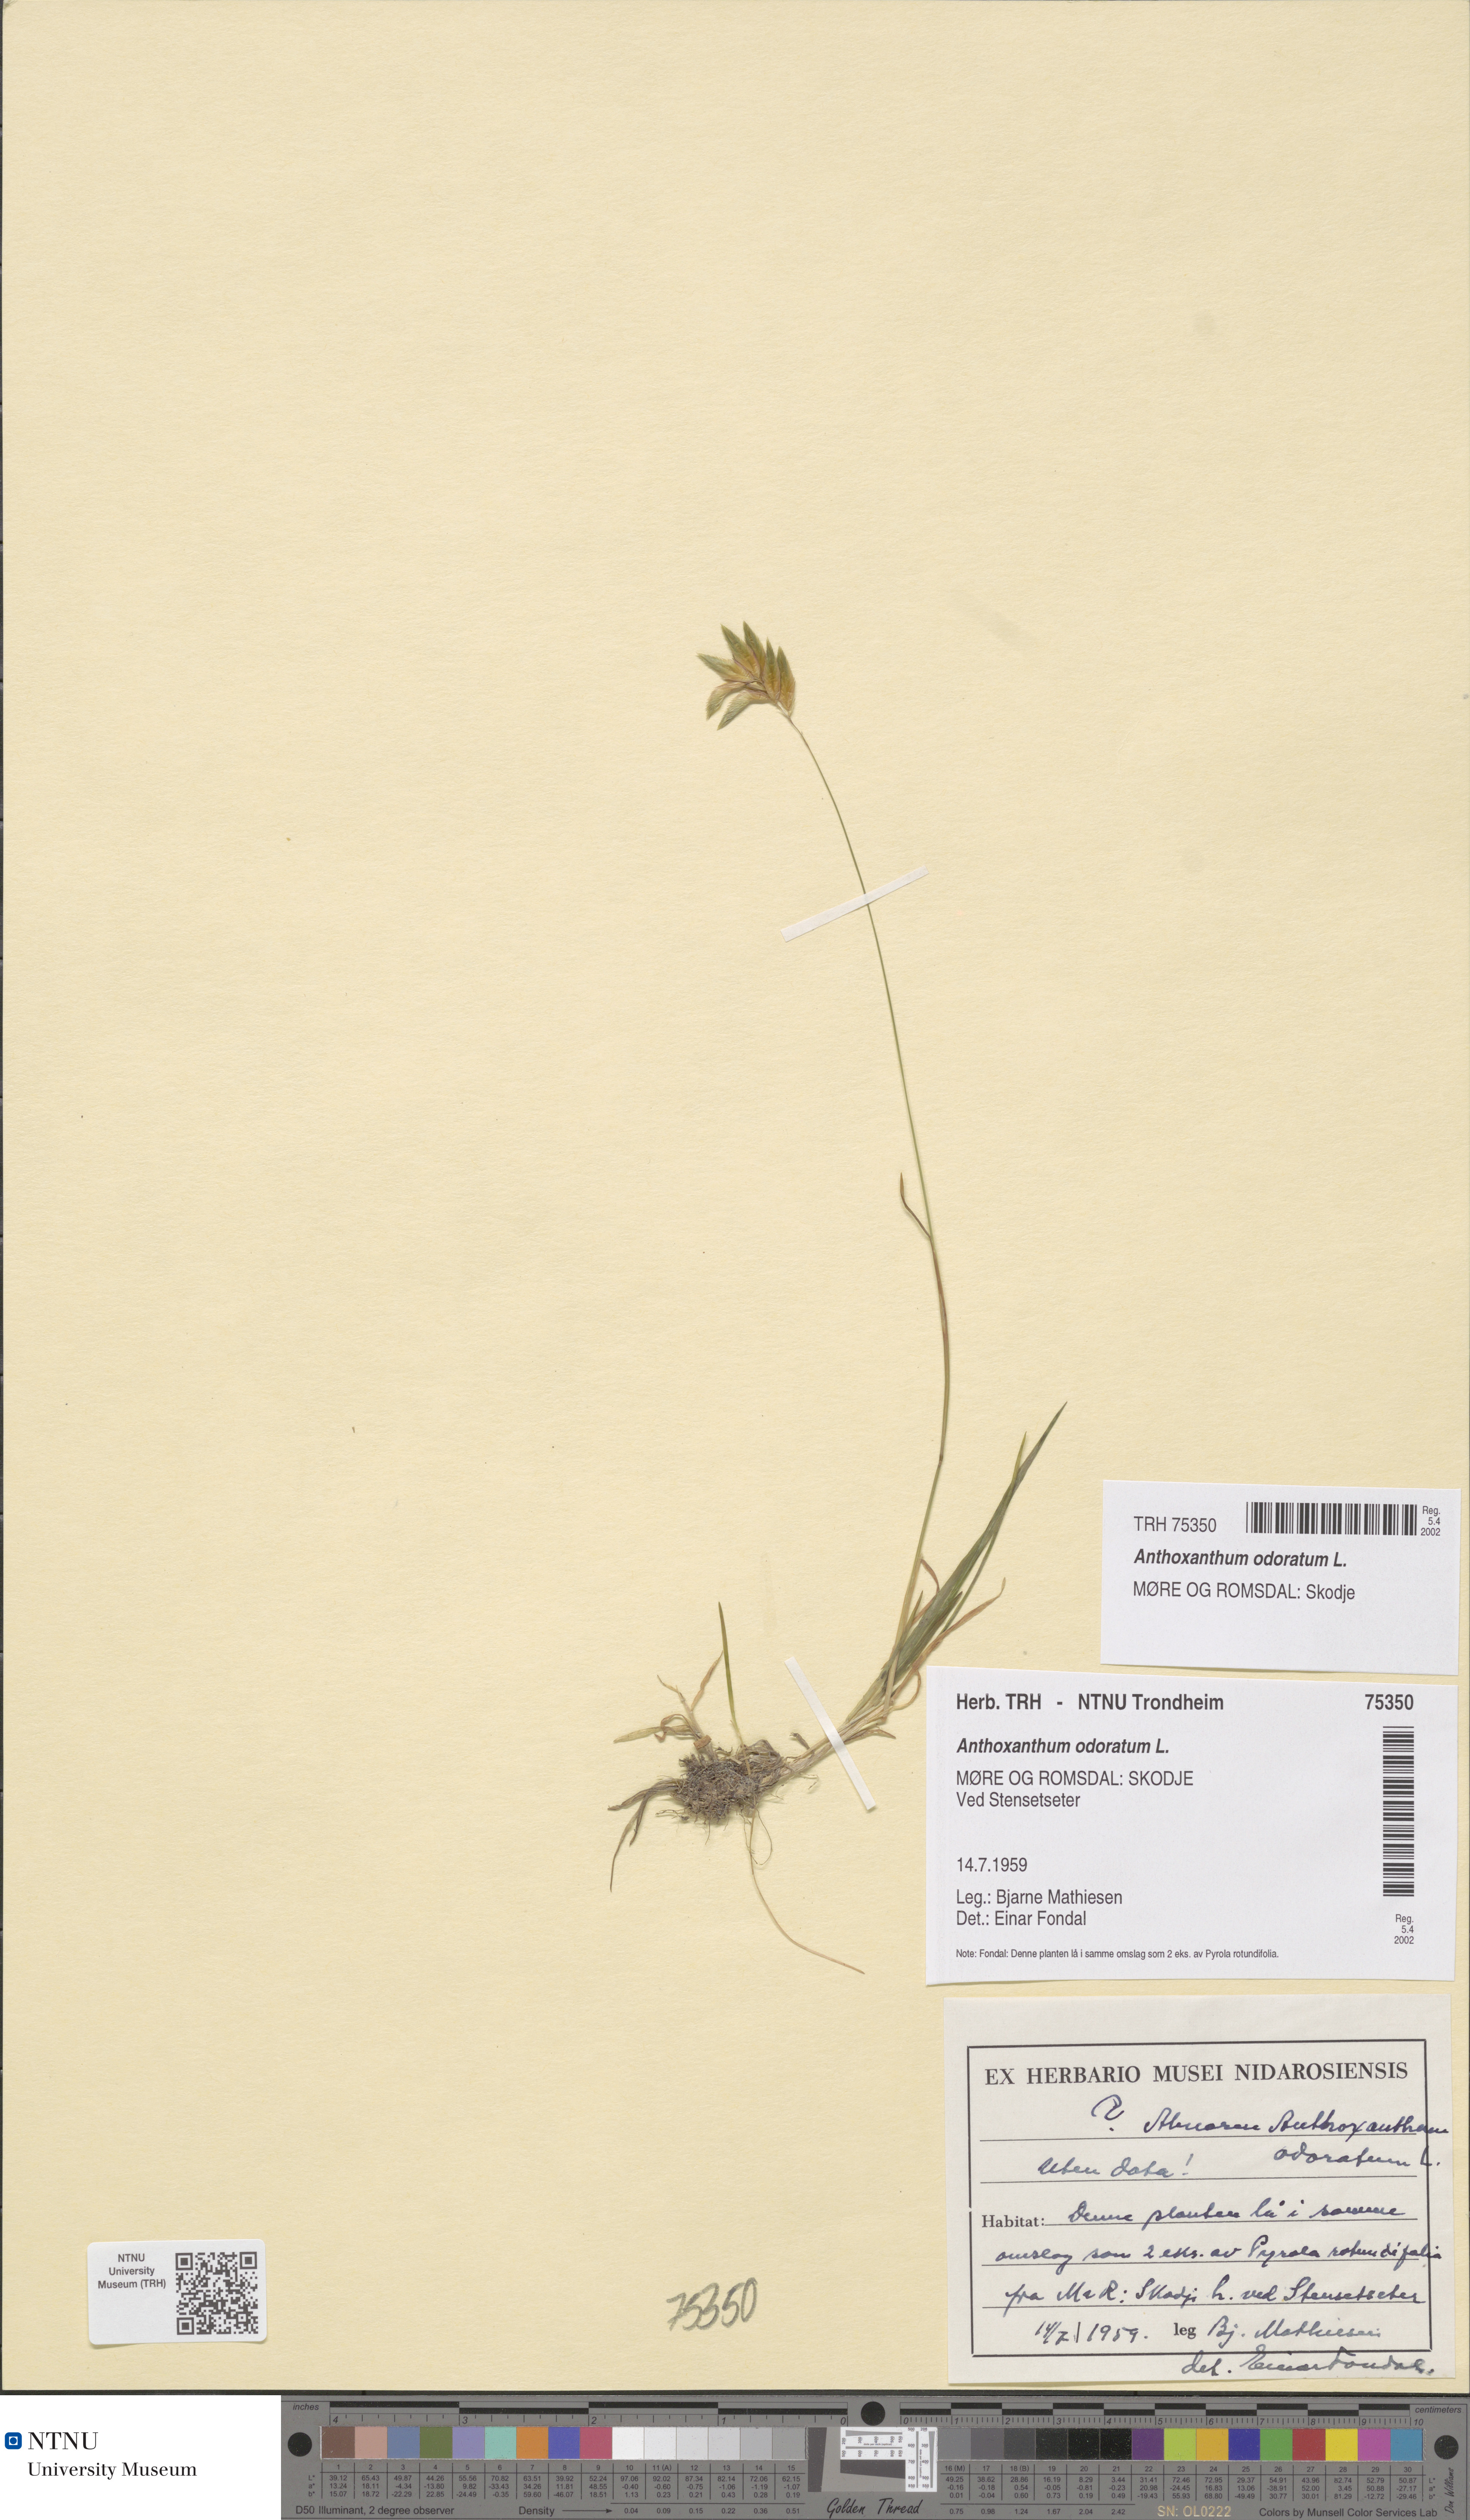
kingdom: Plantae
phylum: Tracheophyta
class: Liliopsida
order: Poales
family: Poaceae
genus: Anthoxanthum
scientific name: Anthoxanthum odoratum
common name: Sweet vernalgrass
